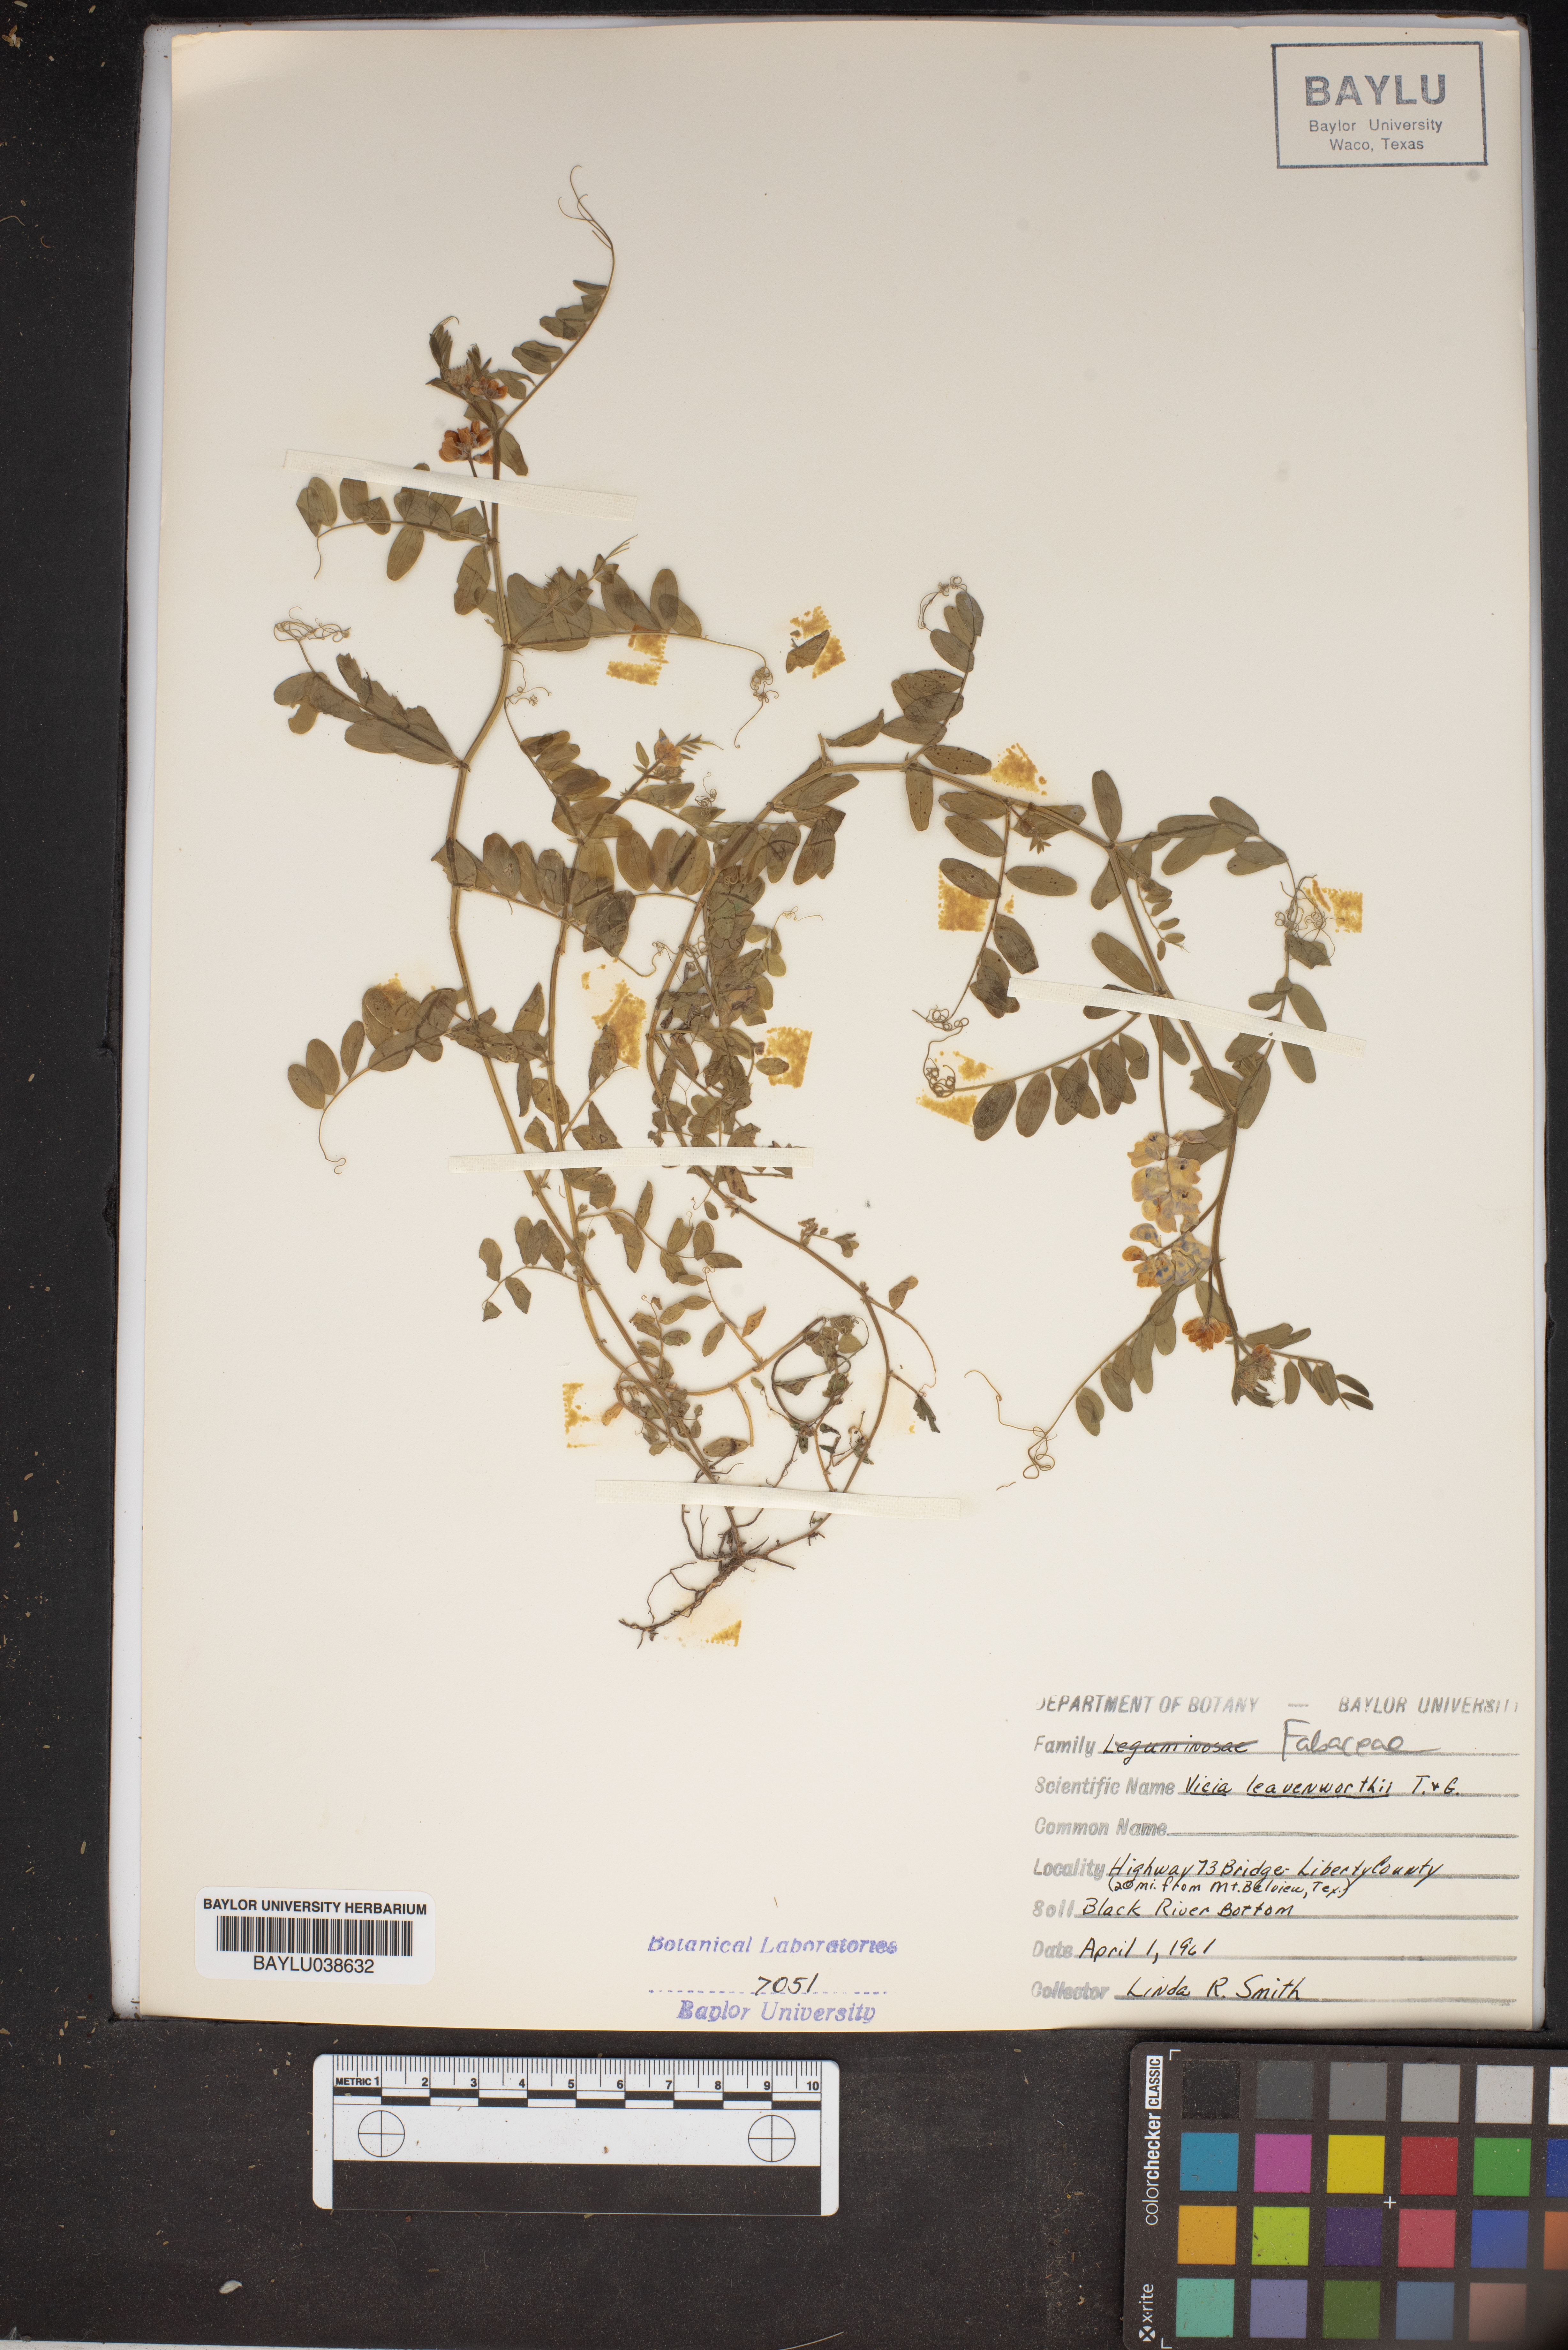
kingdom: Plantae
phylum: Tracheophyta
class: Magnoliopsida
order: Fabales
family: Fabaceae
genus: Vicia
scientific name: Vicia ludoviciana
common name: Louisiana vetch
